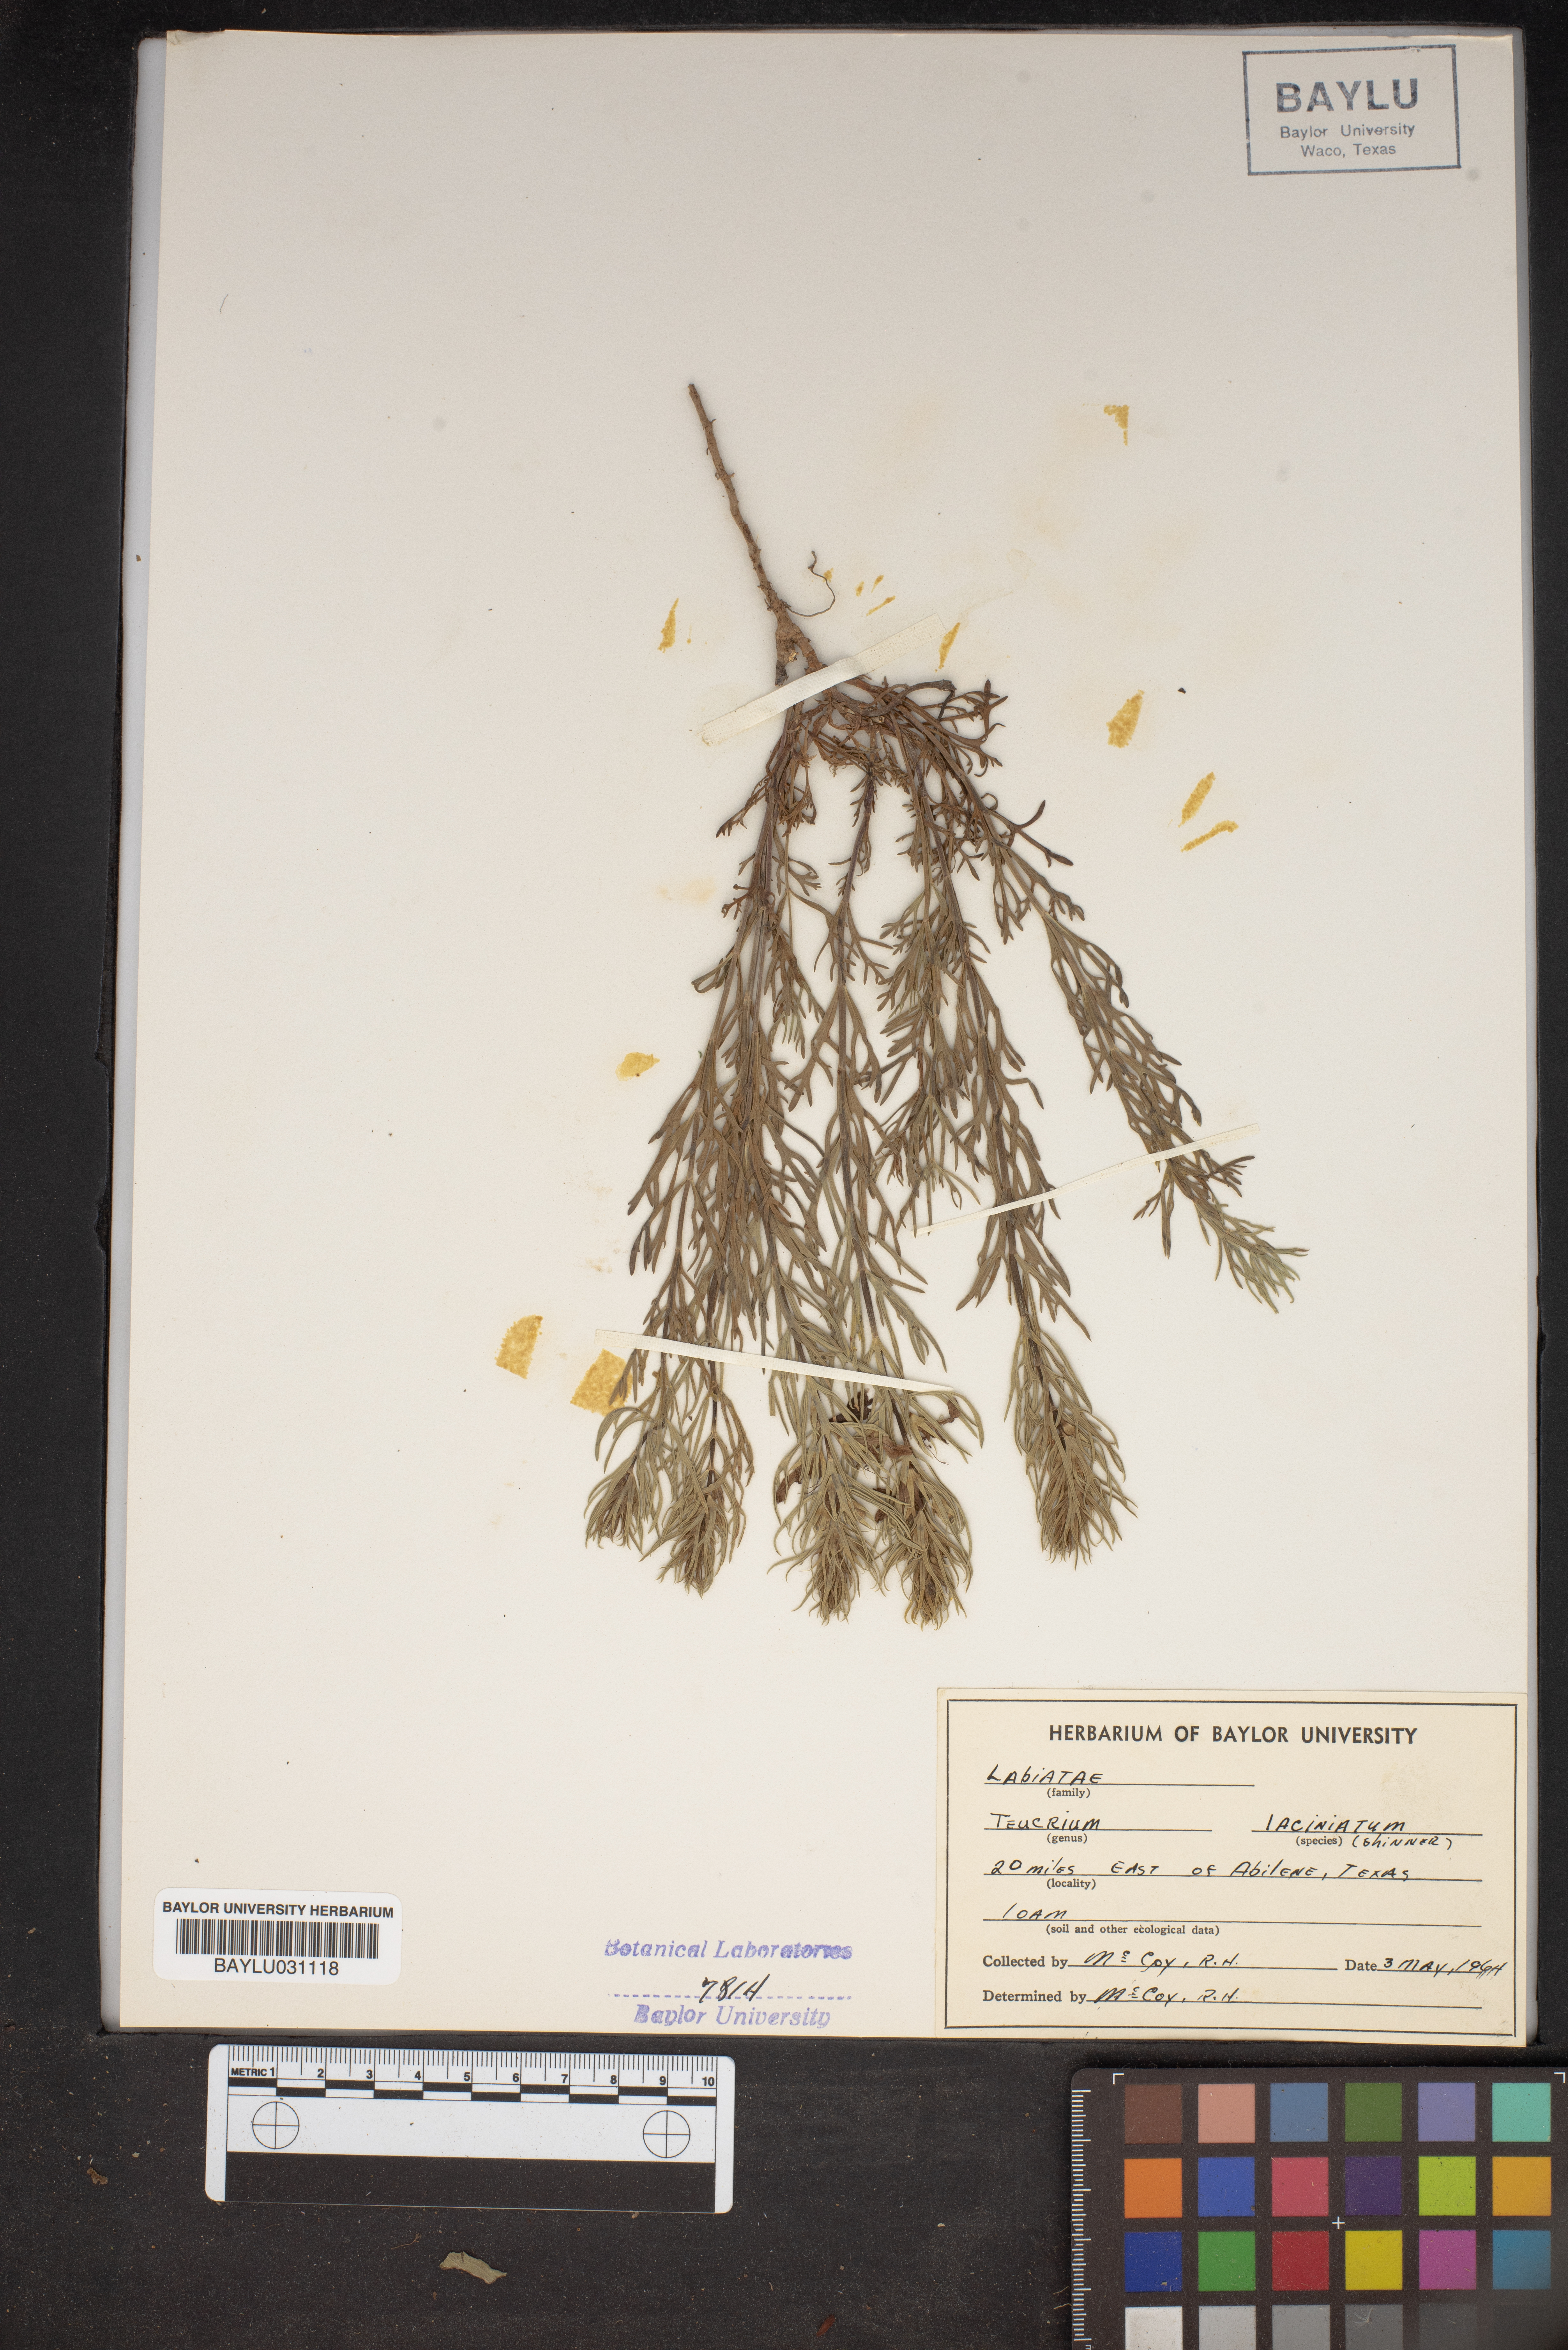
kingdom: Plantae
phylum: Tracheophyta
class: Magnoliopsida
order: Lamiales
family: Lamiaceae
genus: Teucrium
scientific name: Teucrium laciniatum
